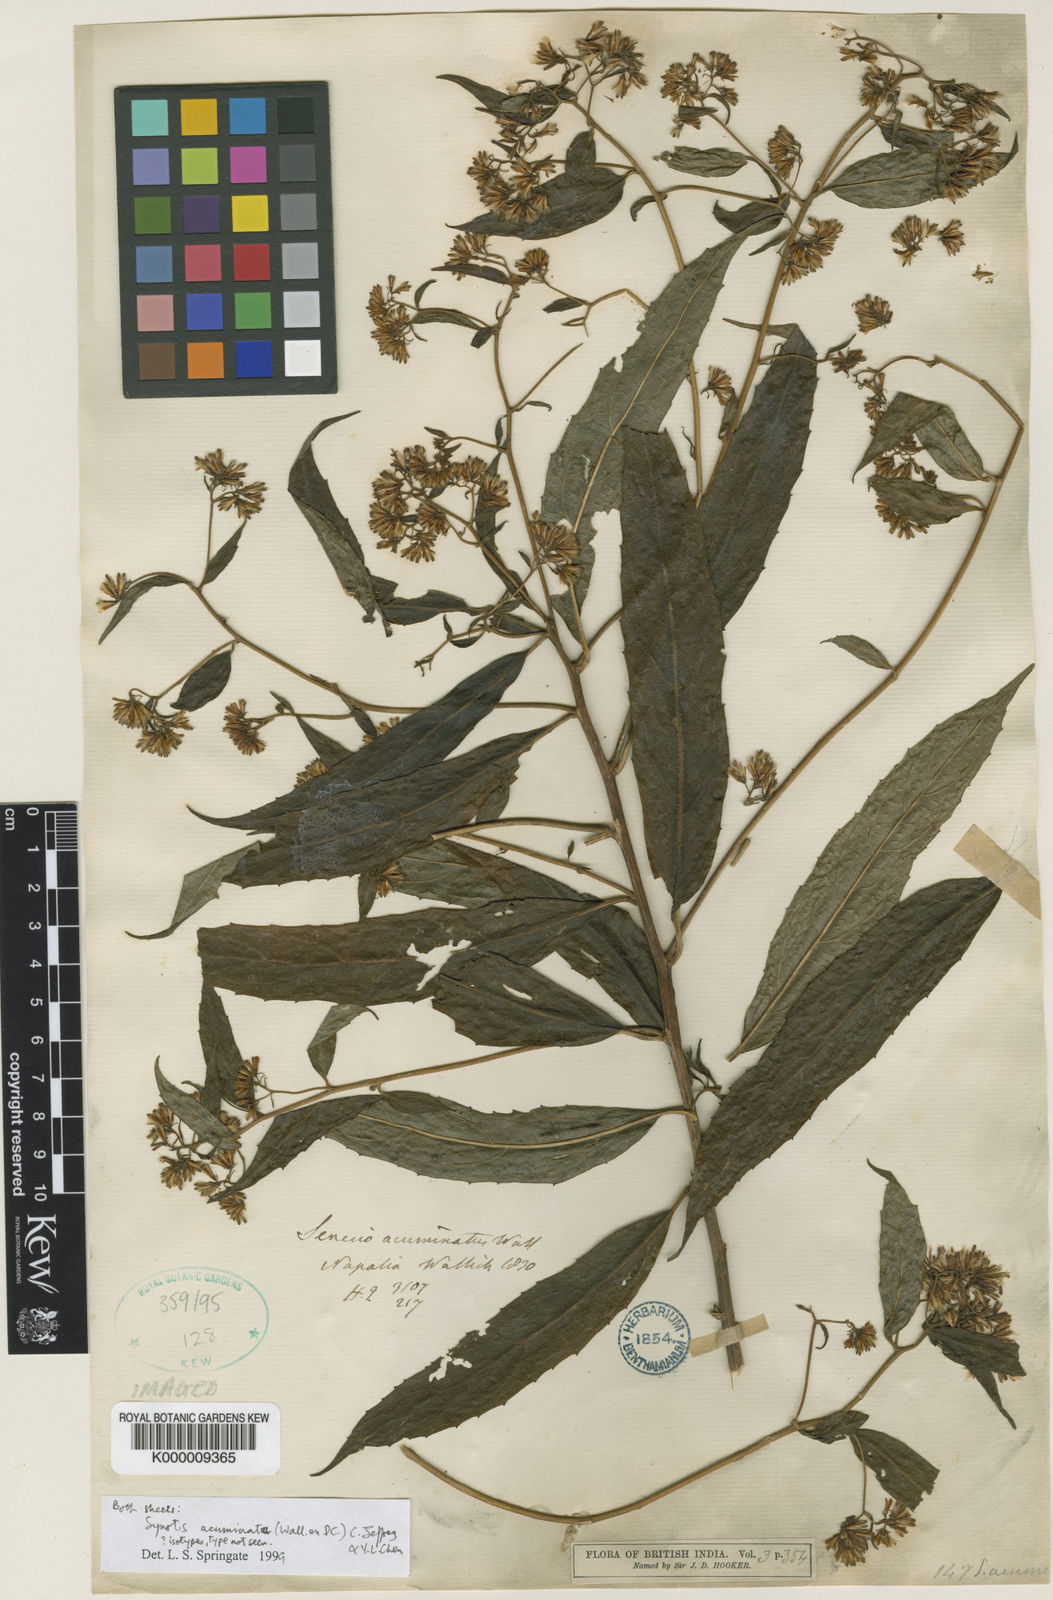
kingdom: Plantae
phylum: Tracheophyta
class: Magnoliopsida
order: Asterales
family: Asteraceae
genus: Synotis
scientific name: Synotis acuminata
